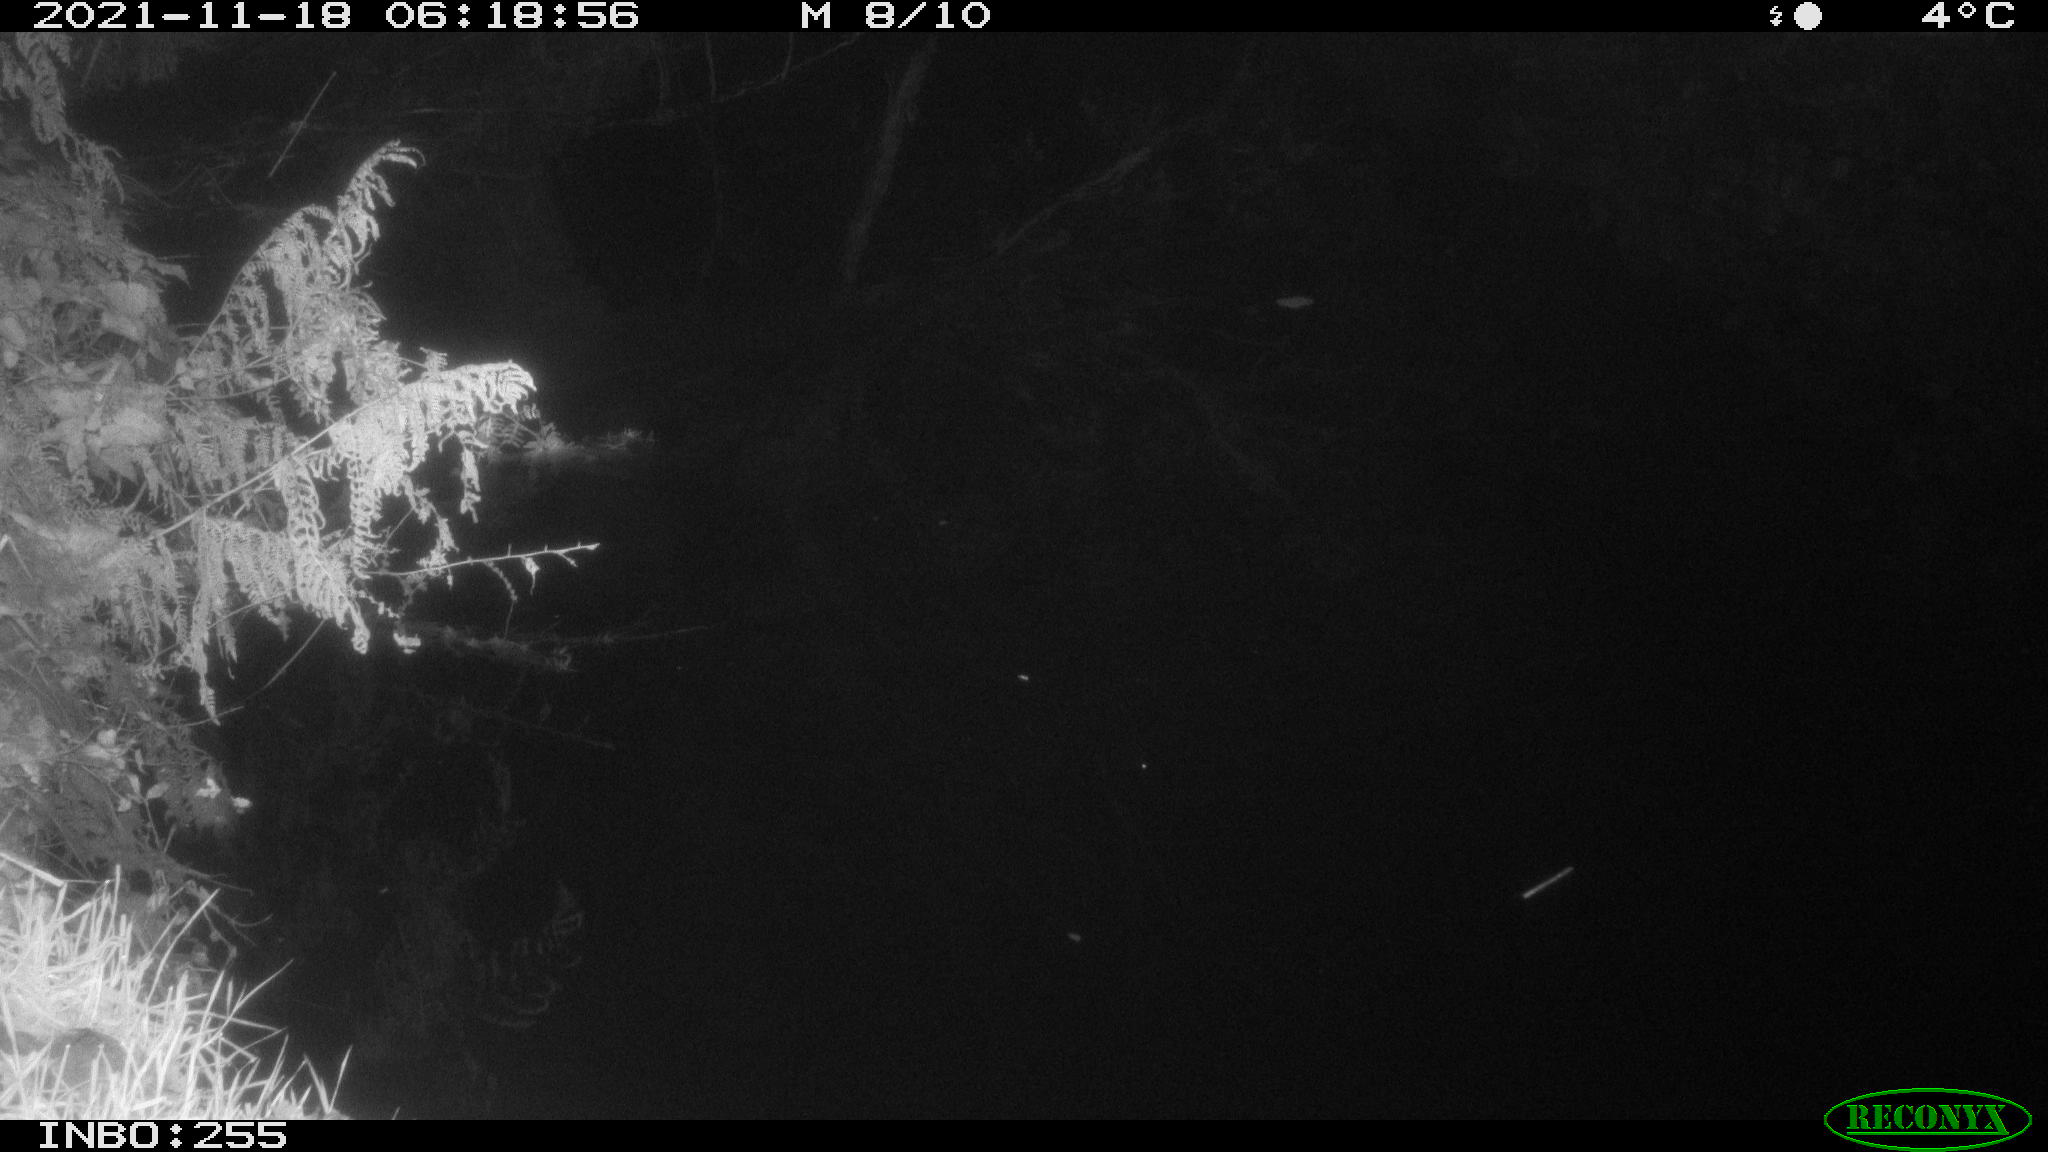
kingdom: Animalia
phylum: Chordata
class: Mammalia
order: Rodentia
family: Muridae
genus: Rattus
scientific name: Rattus norvegicus
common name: Brown rat
